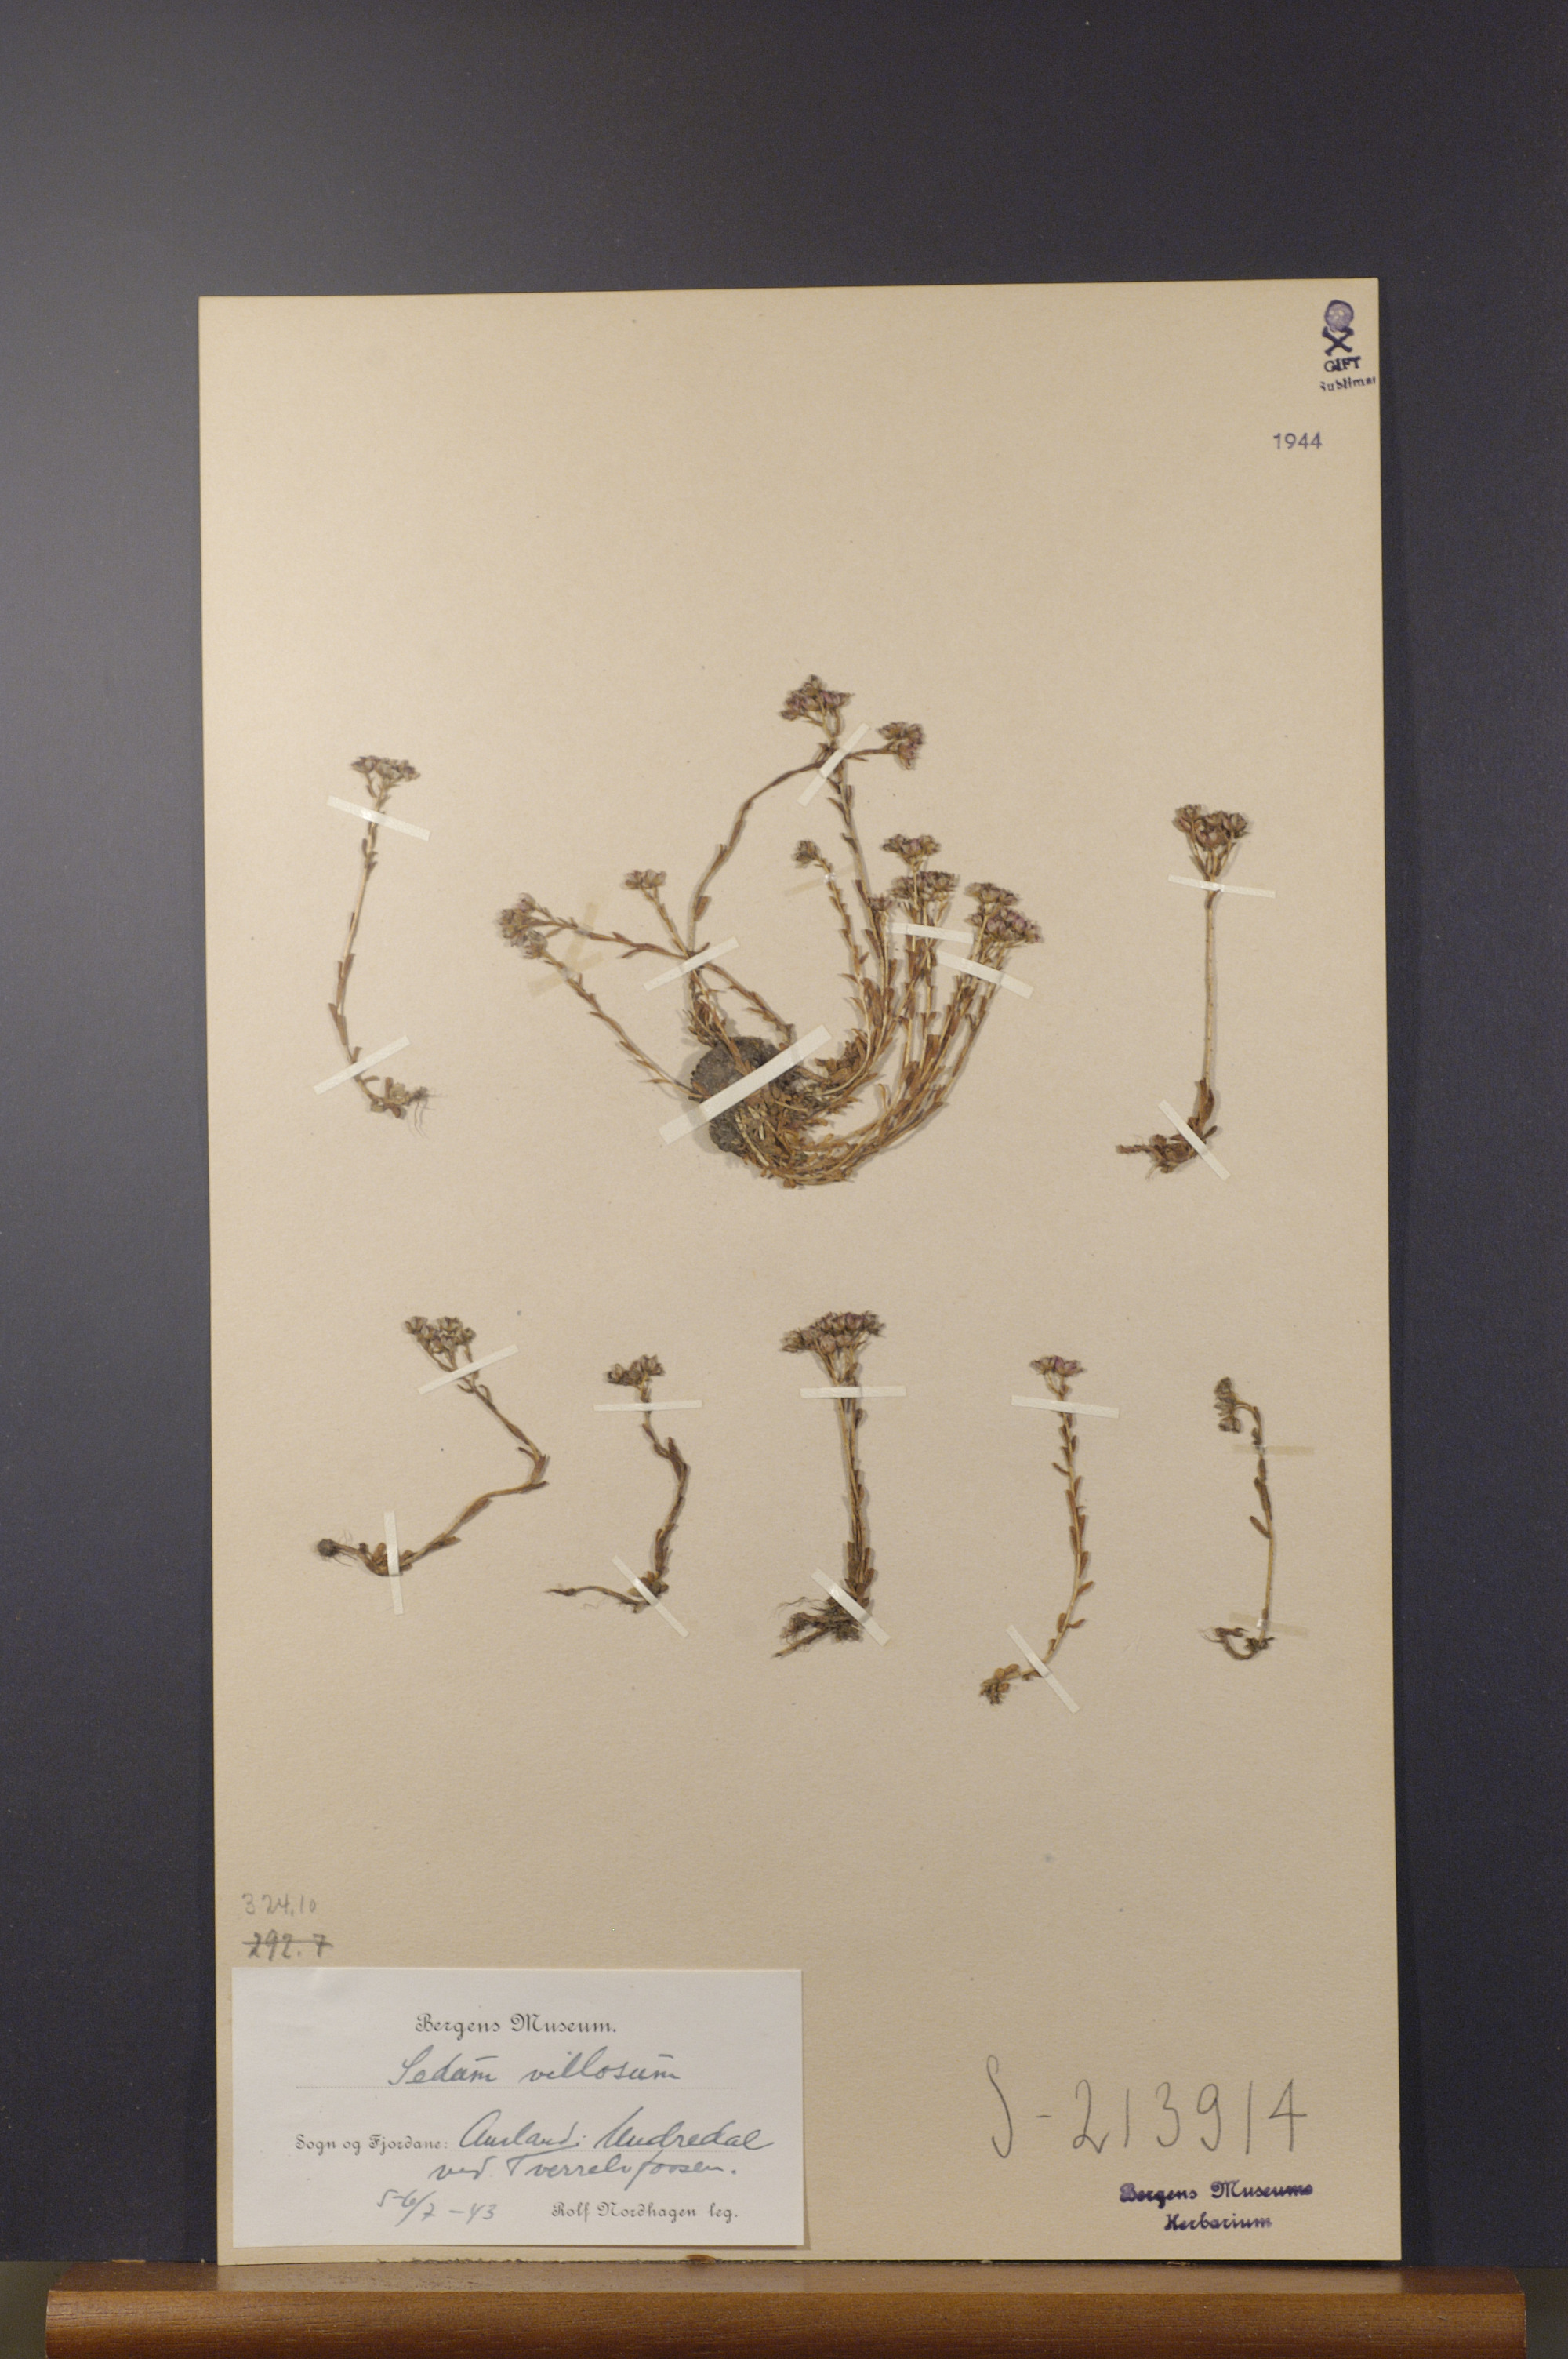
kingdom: Plantae
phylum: Tracheophyta
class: Magnoliopsida
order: Saxifragales
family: Crassulaceae
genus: Sedum
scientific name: Sedum villosum
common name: Hairy stonecrop
